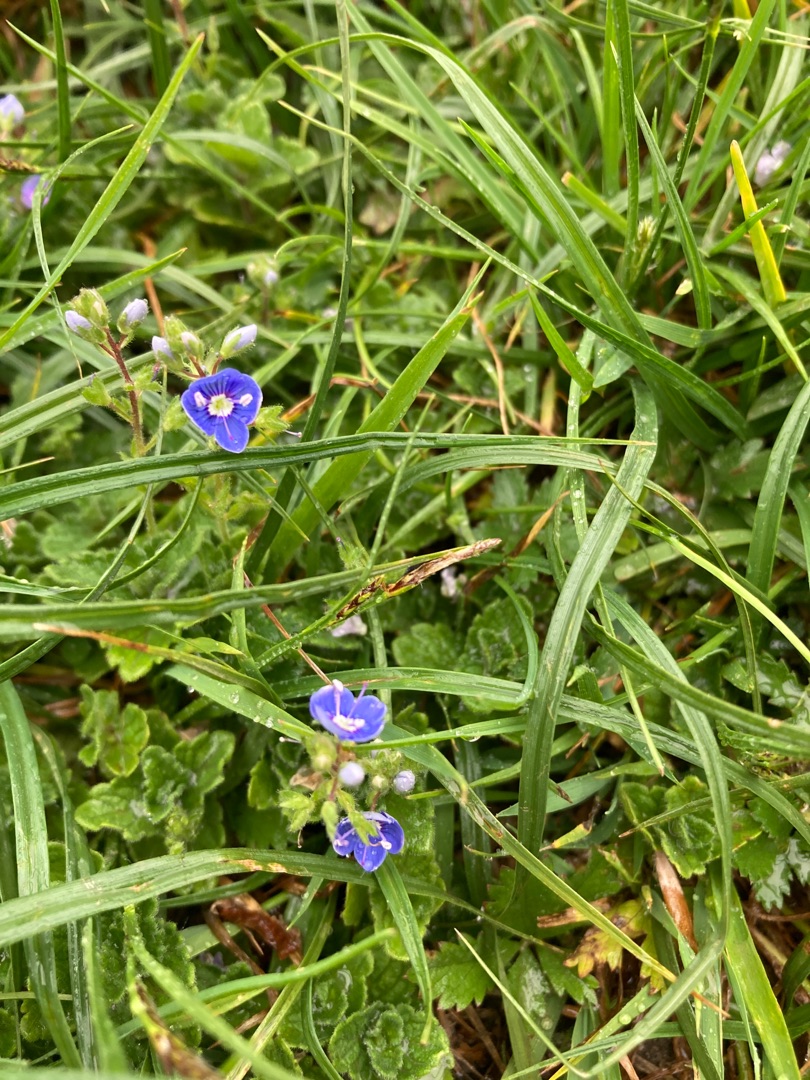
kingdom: Plantae
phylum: Tracheophyta
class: Magnoliopsida
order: Lamiales
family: Plantaginaceae
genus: Veronica
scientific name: Veronica chamaedrys
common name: Tveskægget ærenpris
